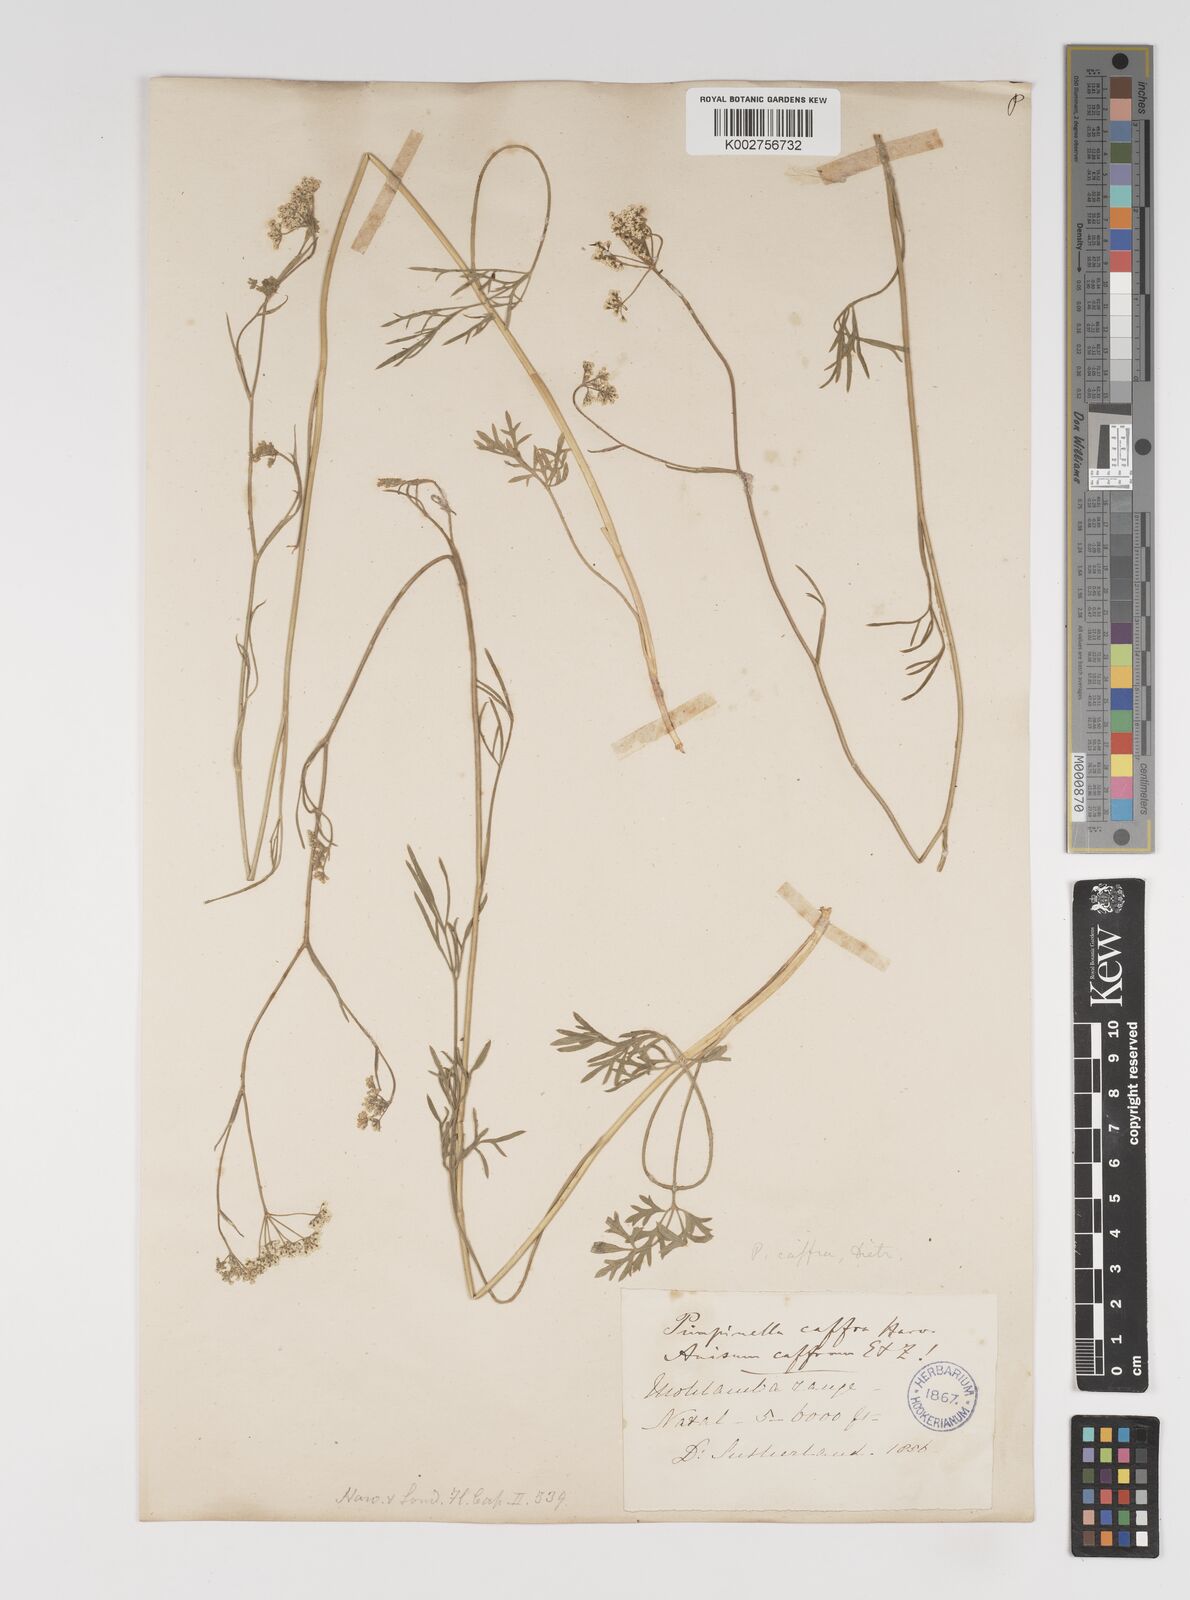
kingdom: Plantae
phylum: Tracheophyta
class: Magnoliopsida
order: Apiales
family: Apiaceae
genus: Pimpinella
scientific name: Pimpinella caffra
